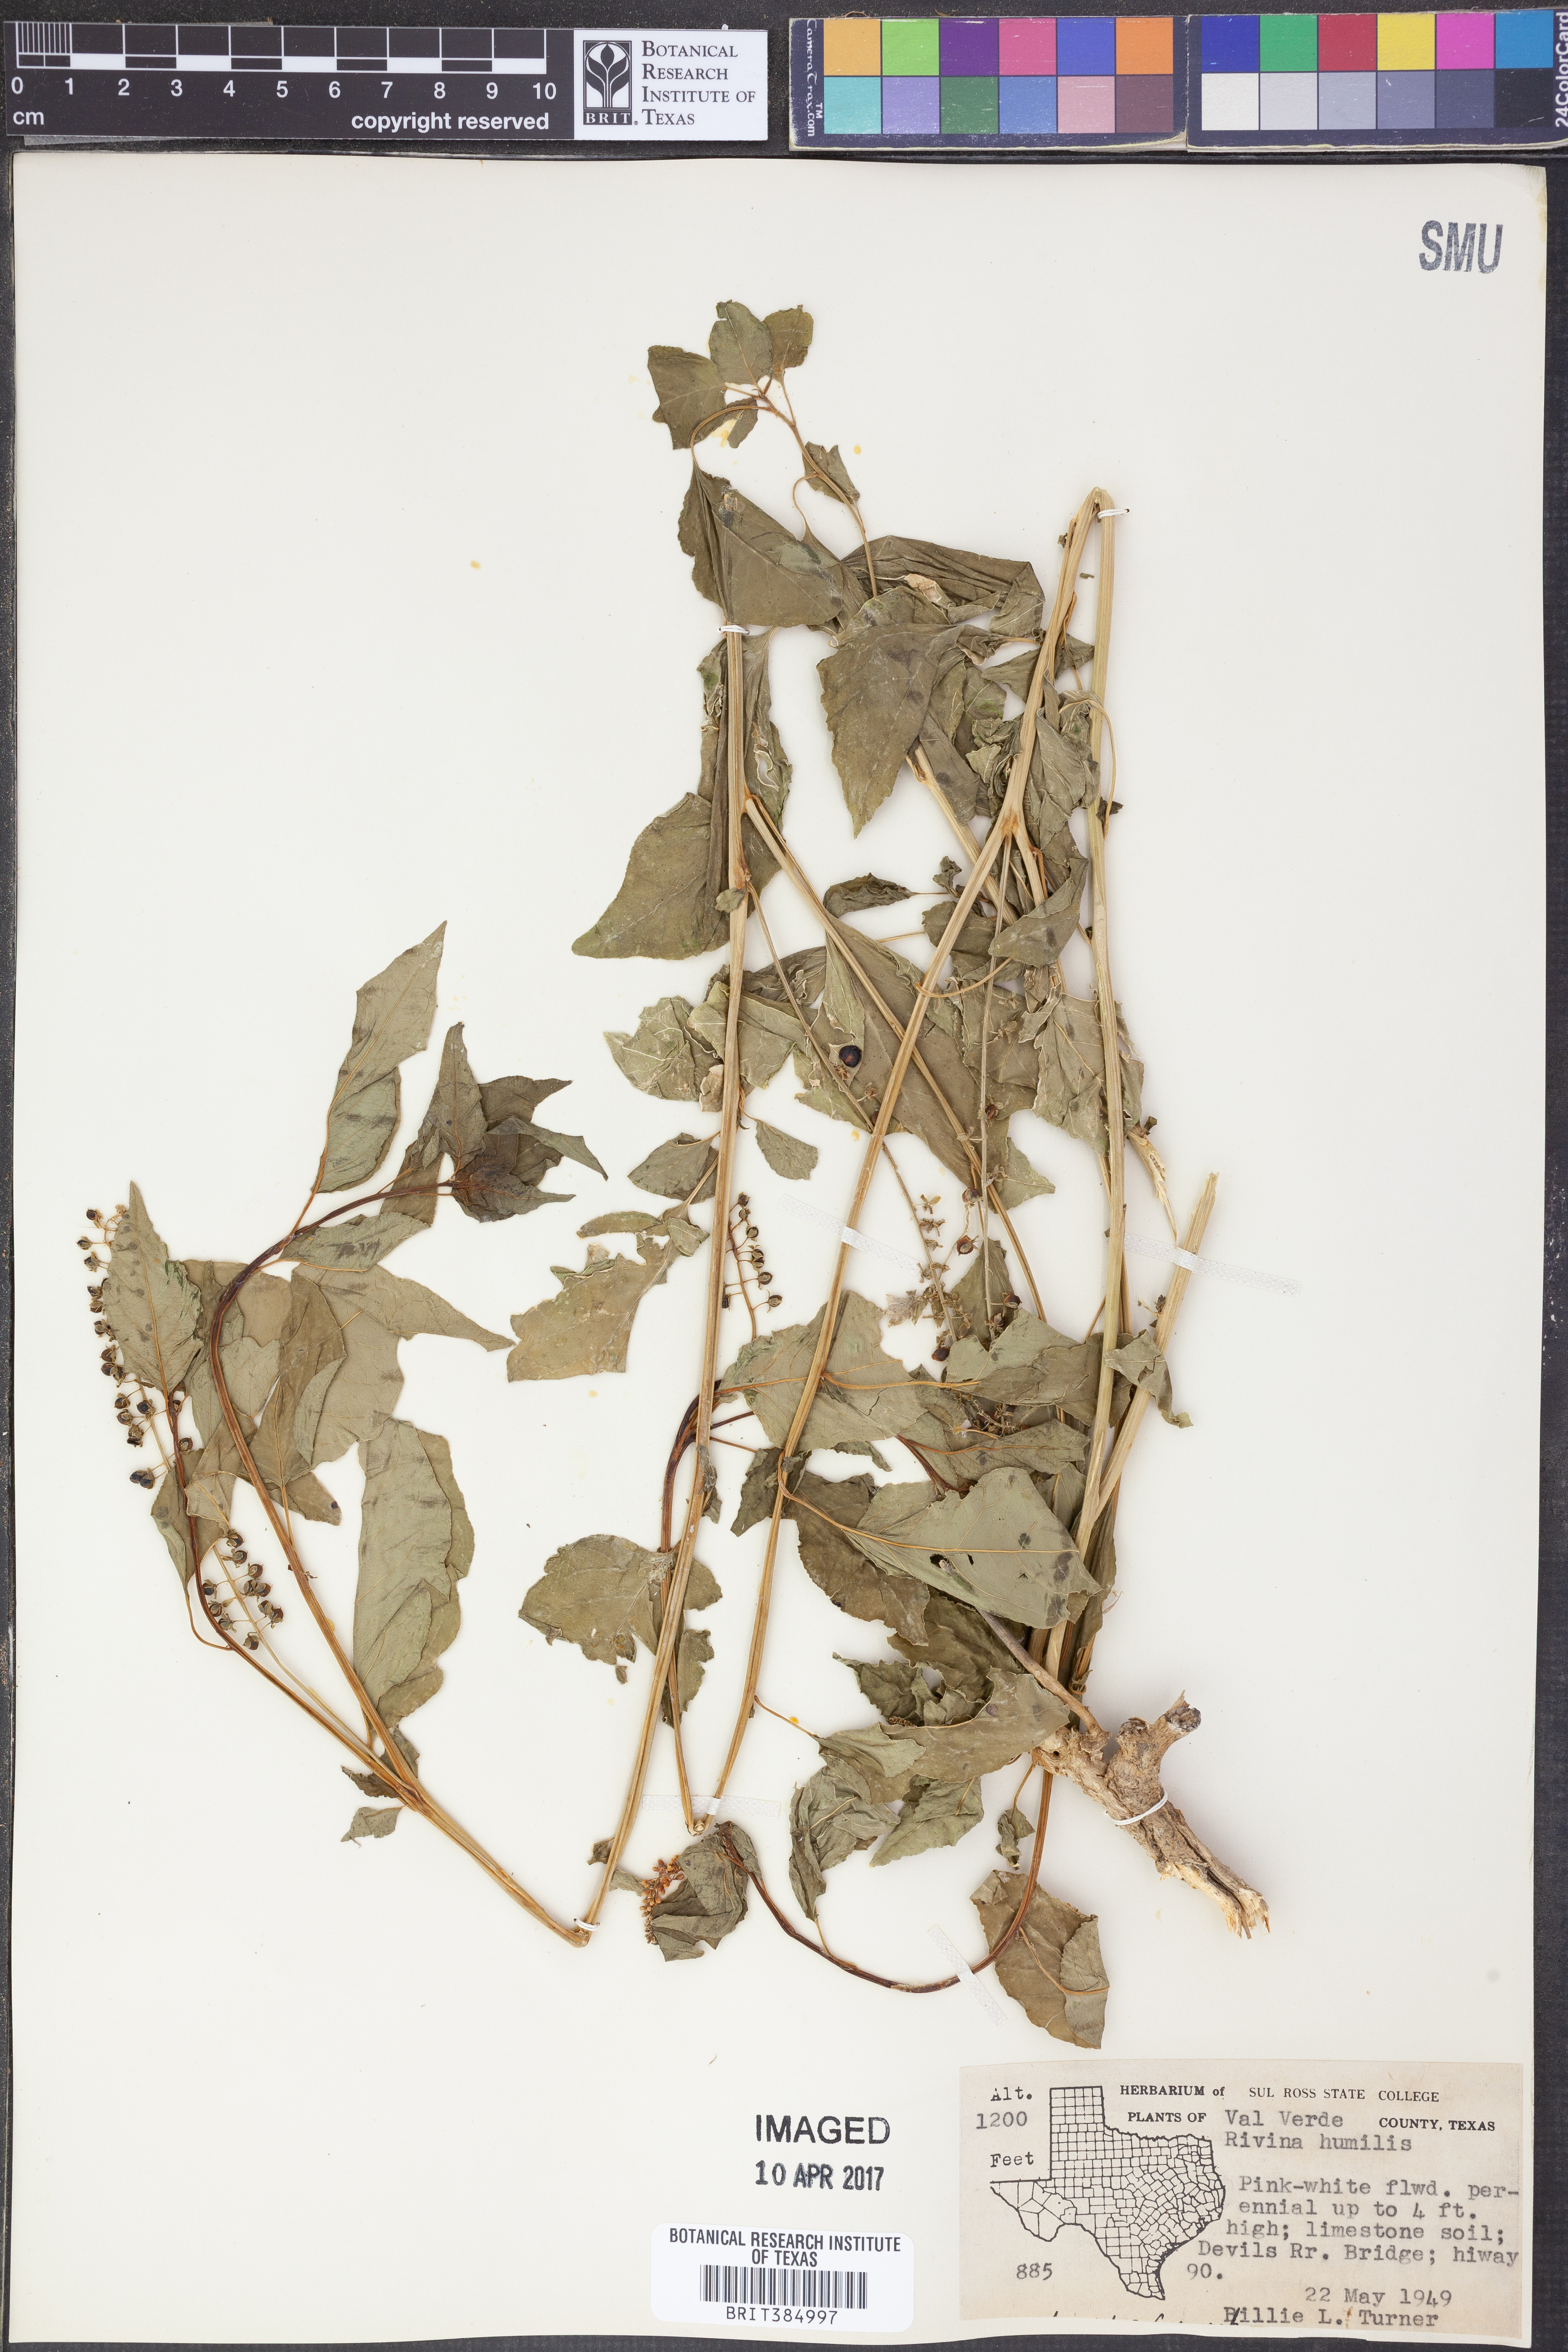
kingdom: Plantae
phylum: Tracheophyta
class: Magnoliopsida
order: Caryophyllales
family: Phytolaccaceae
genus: Rivina
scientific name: Rivina humilis
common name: Rougeplant
